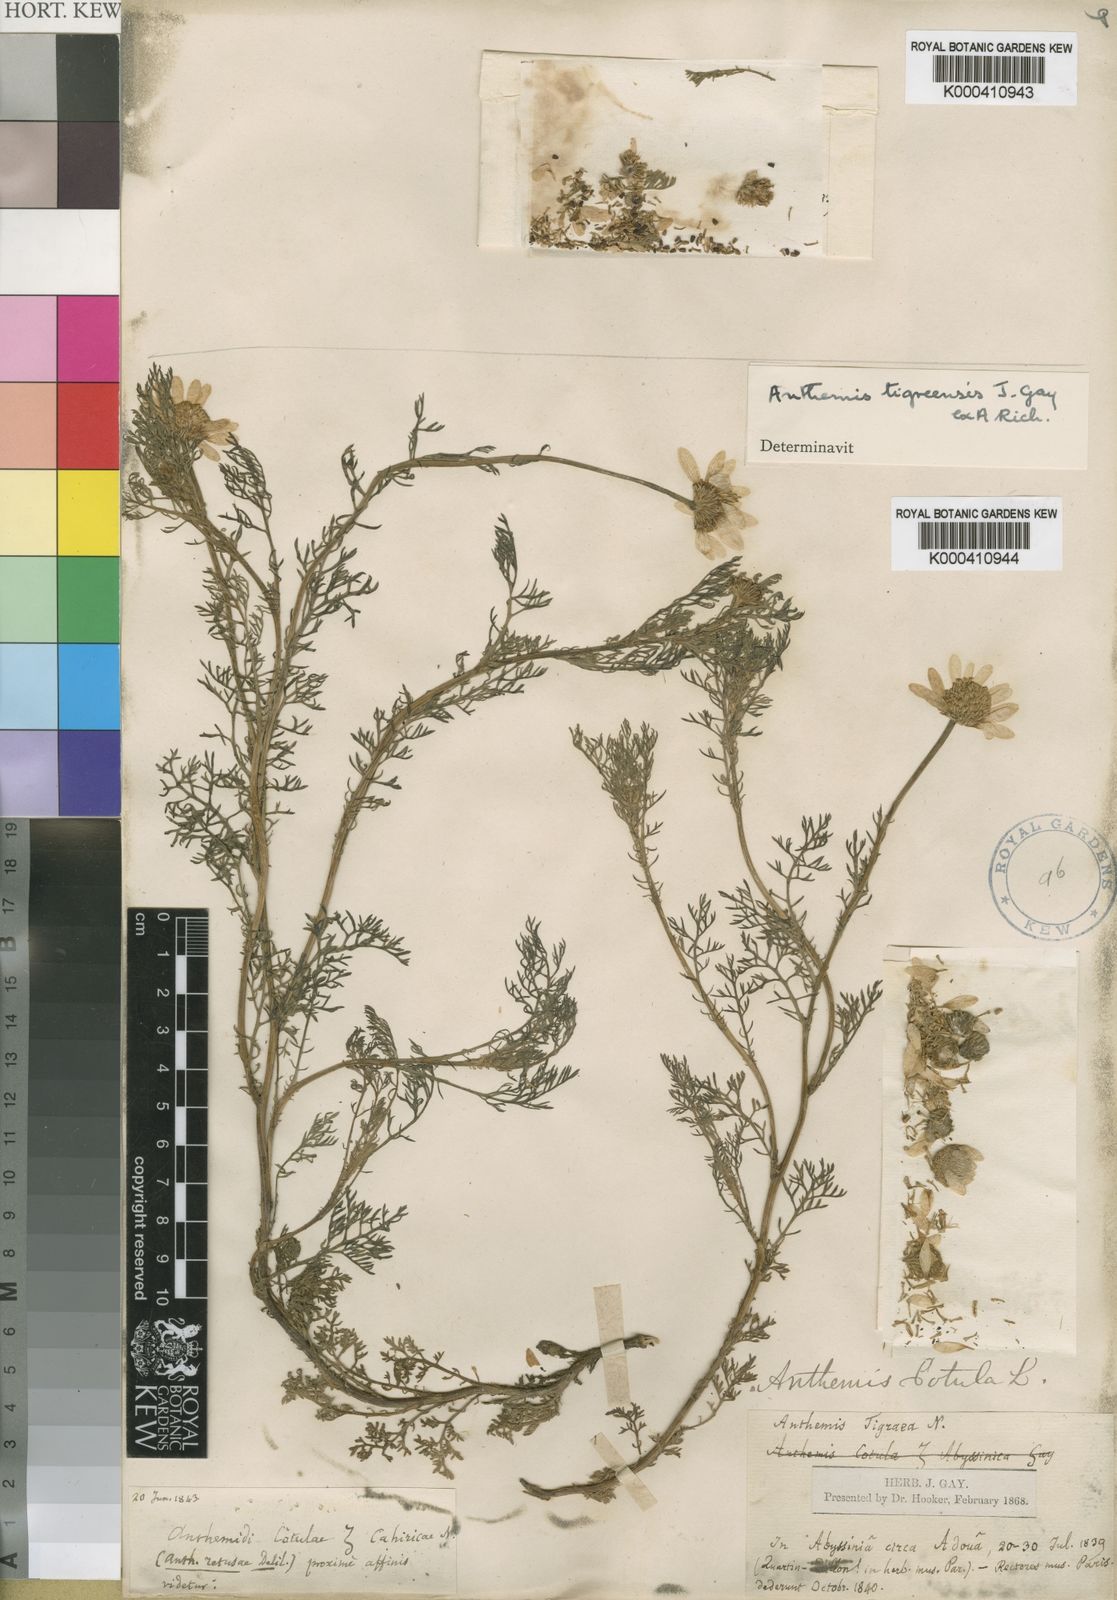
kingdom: Plantae
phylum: Tracheophyta
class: Magnoliopsida
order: Asterales
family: Asteraceae
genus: Anthemis
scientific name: Anthemis tigreensis
